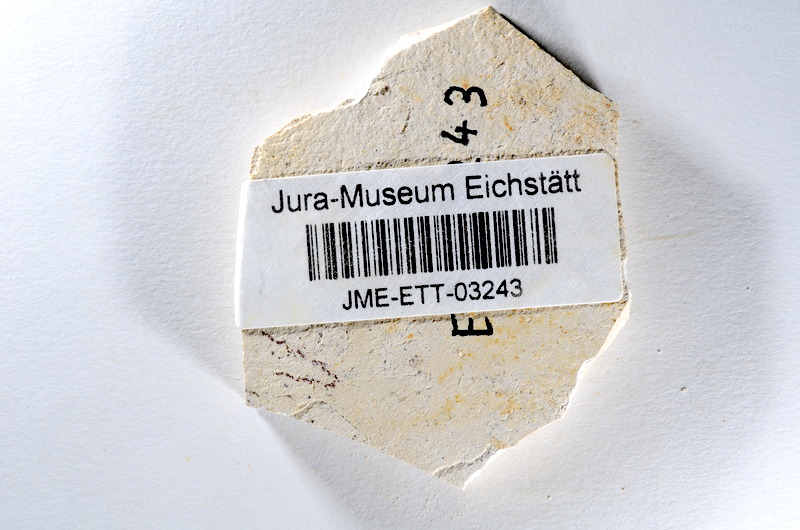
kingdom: Animalia
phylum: Chordata
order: Salmoniformes
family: Orthogonikleithridae
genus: Orthogonikleithrus
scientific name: Orthogonikleithrus hoelli
